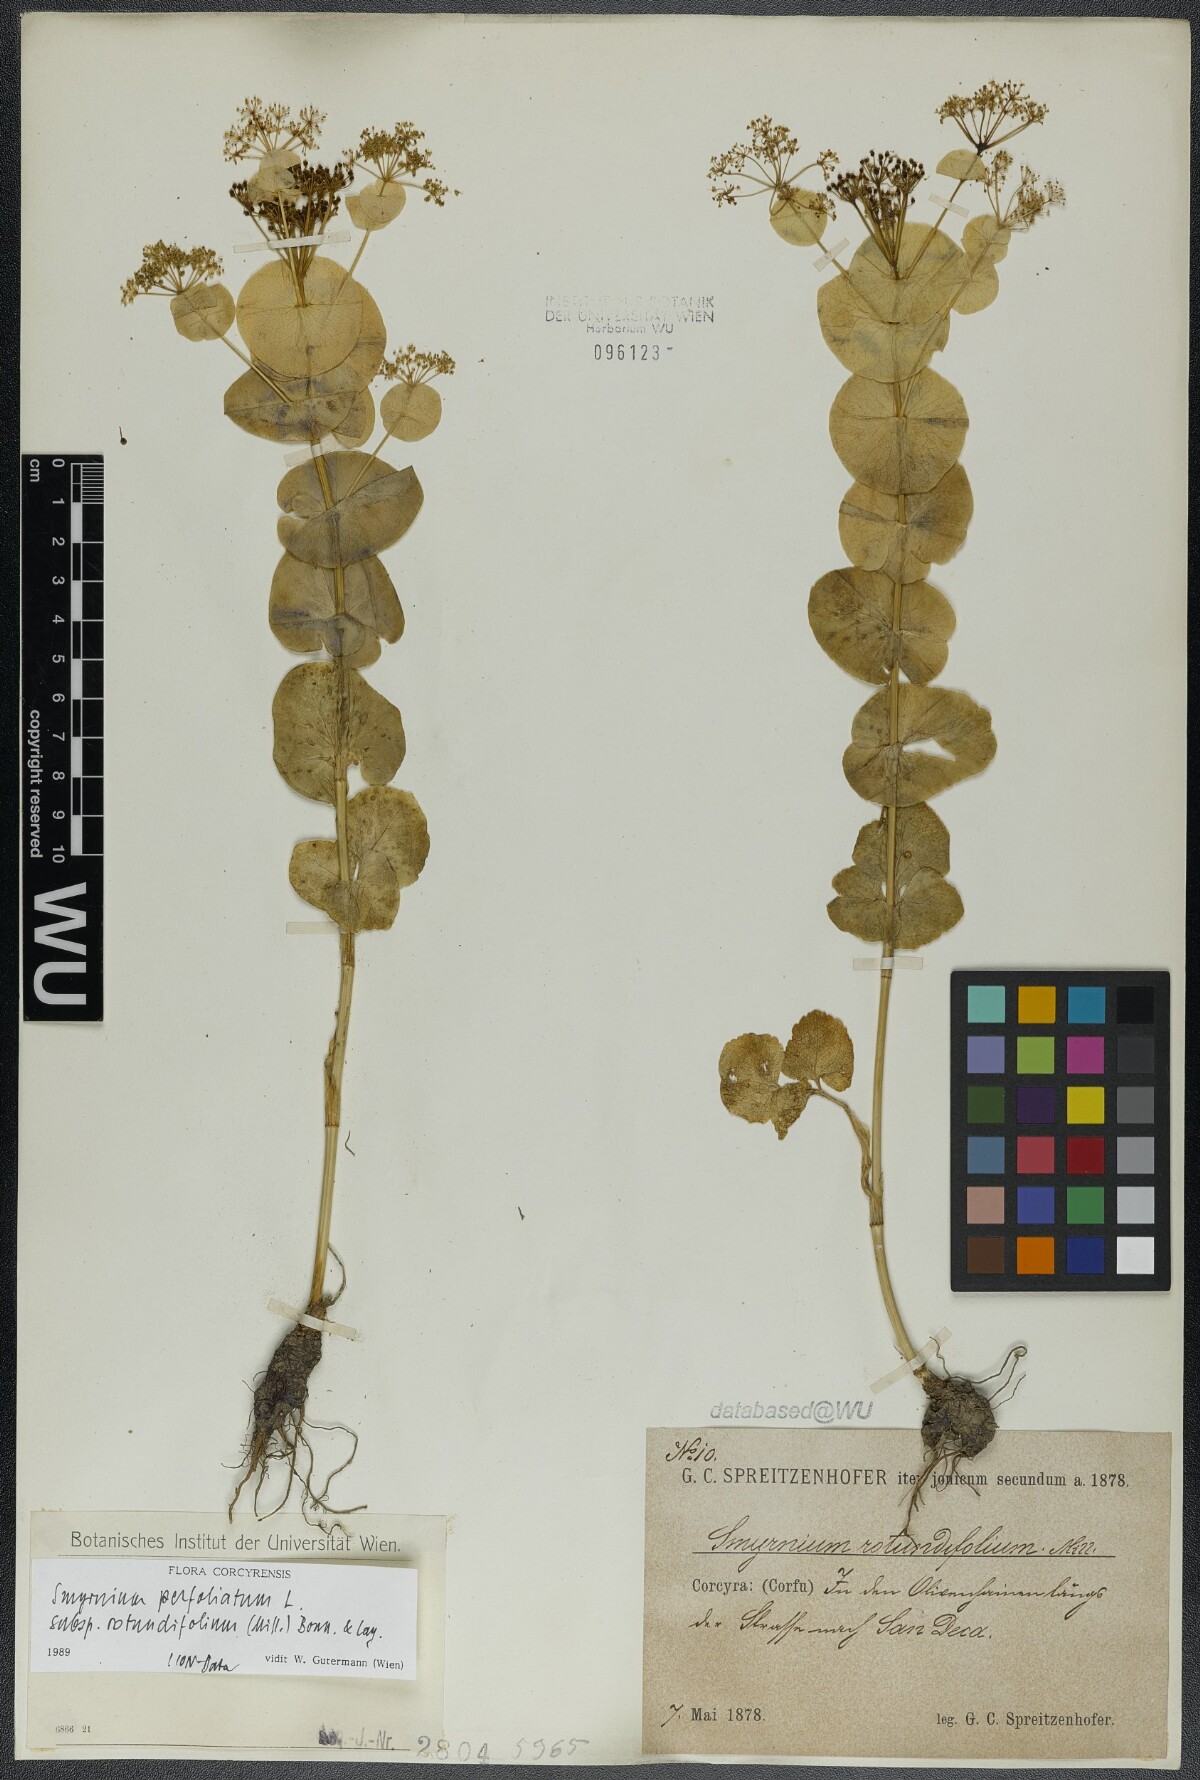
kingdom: Plantae
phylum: Tracheophyta
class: Magnoliopsida
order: Apiales
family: Apiaceae
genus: Smyrnium
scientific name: Smyrnium perfoliatum
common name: Perfoliate alexanders
